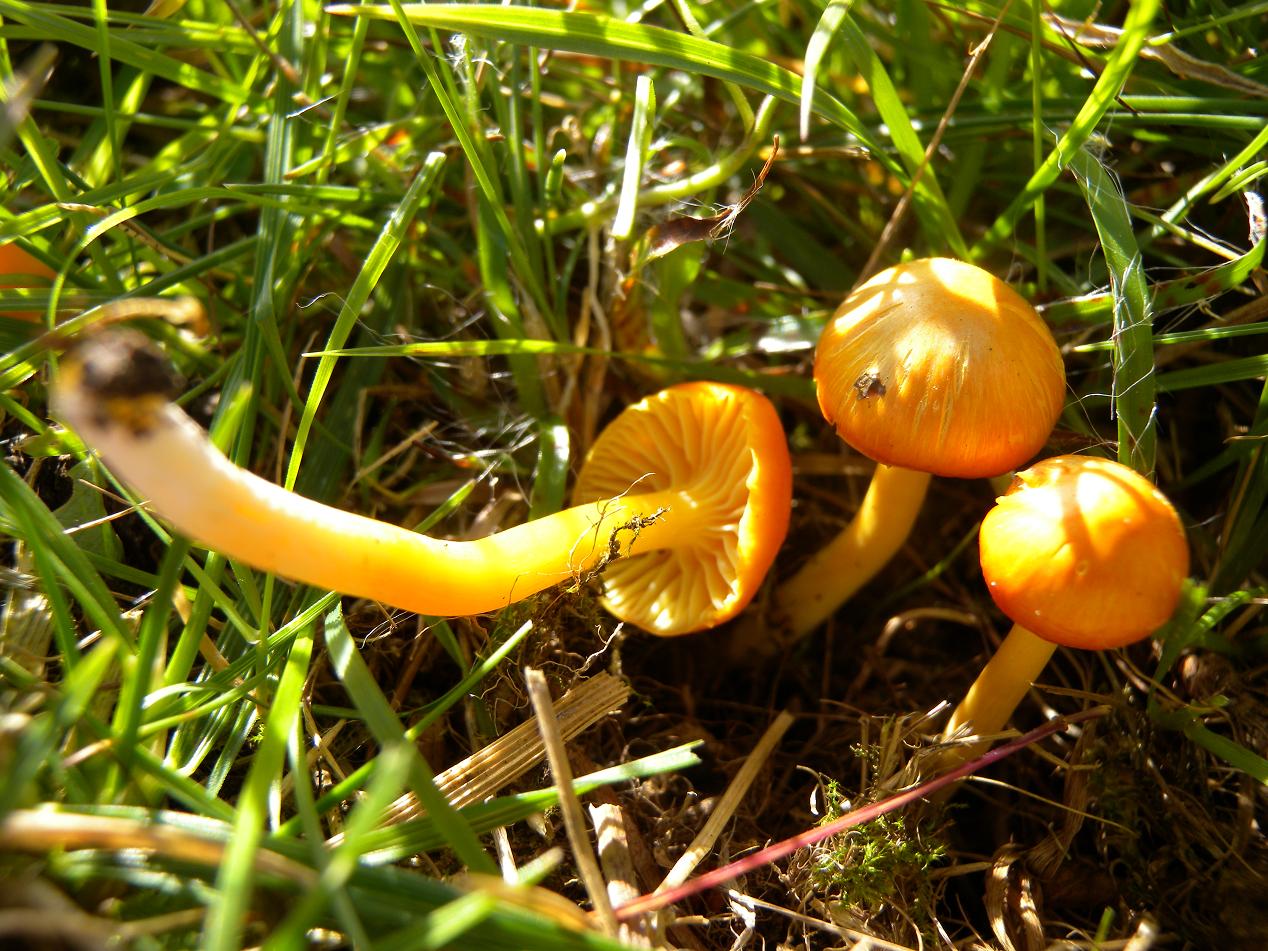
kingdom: Fungi
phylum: Basidiomycota
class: Agaricomycetes
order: Agaricales
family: Hygrophoraceae
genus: Hygrocybe
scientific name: Hygrocybe insipida
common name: liden vokshat
